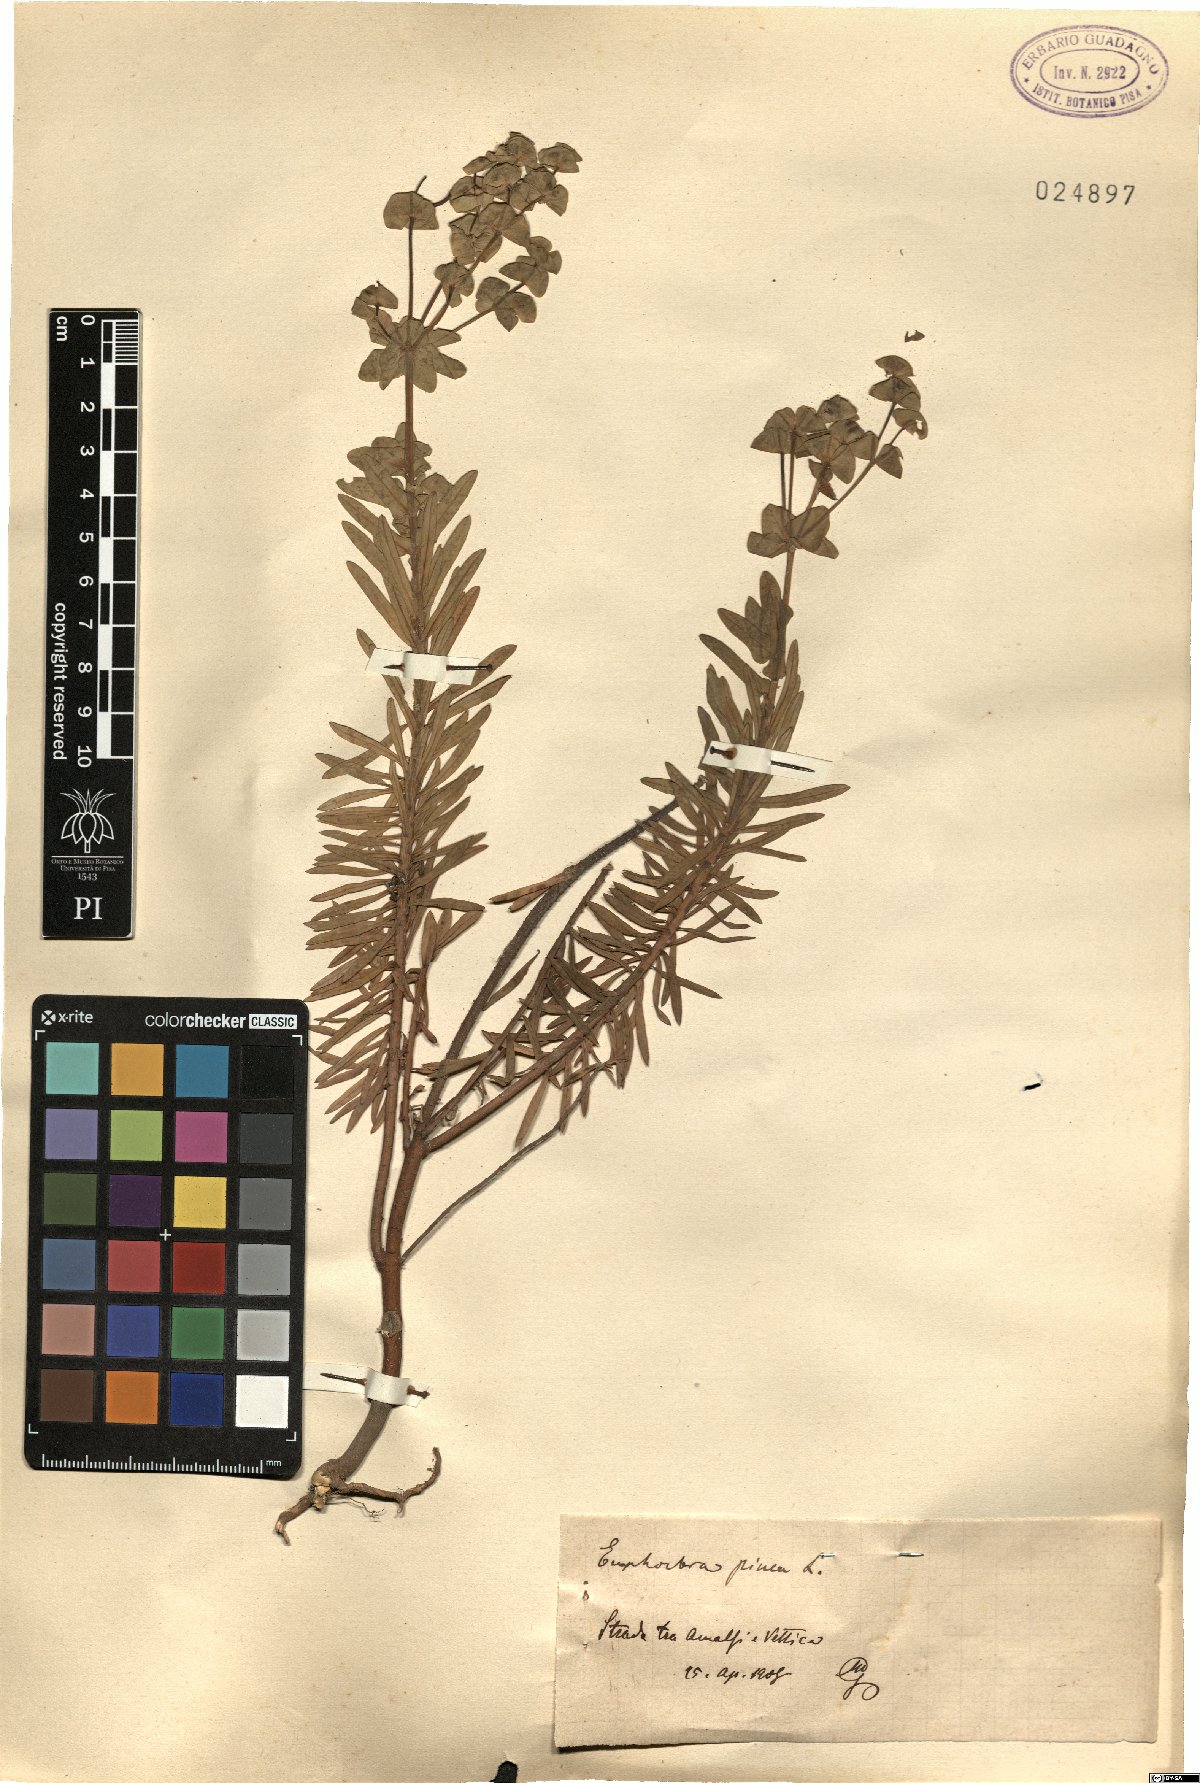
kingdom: Plantae
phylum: Tracheophyta
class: Magnoliopsida
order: Malpighiales
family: Euphorbiaceae
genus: Euphorbia
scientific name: Euphorbia segetalis
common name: Corn spurge
